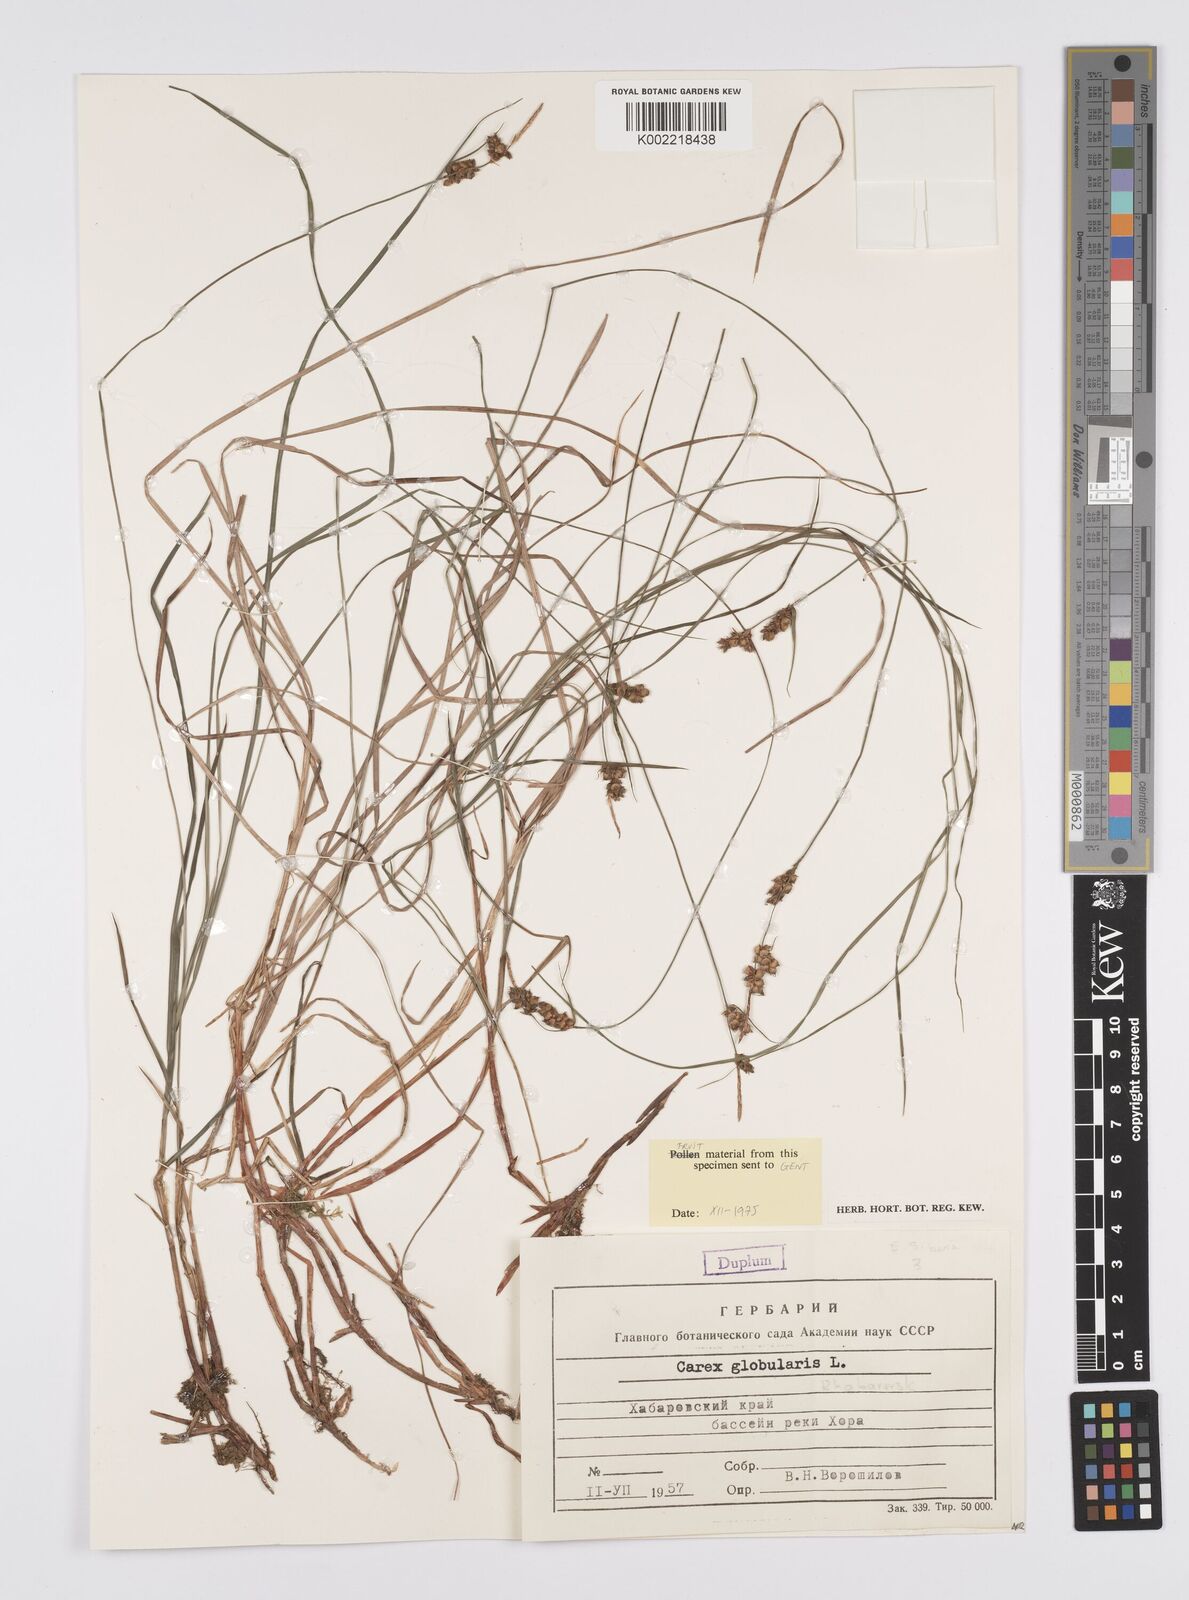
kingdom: Plantae
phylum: Tracheophyta
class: Liliopsida
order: Poales
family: Cyperaceae
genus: Carex
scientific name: Carex globularis
